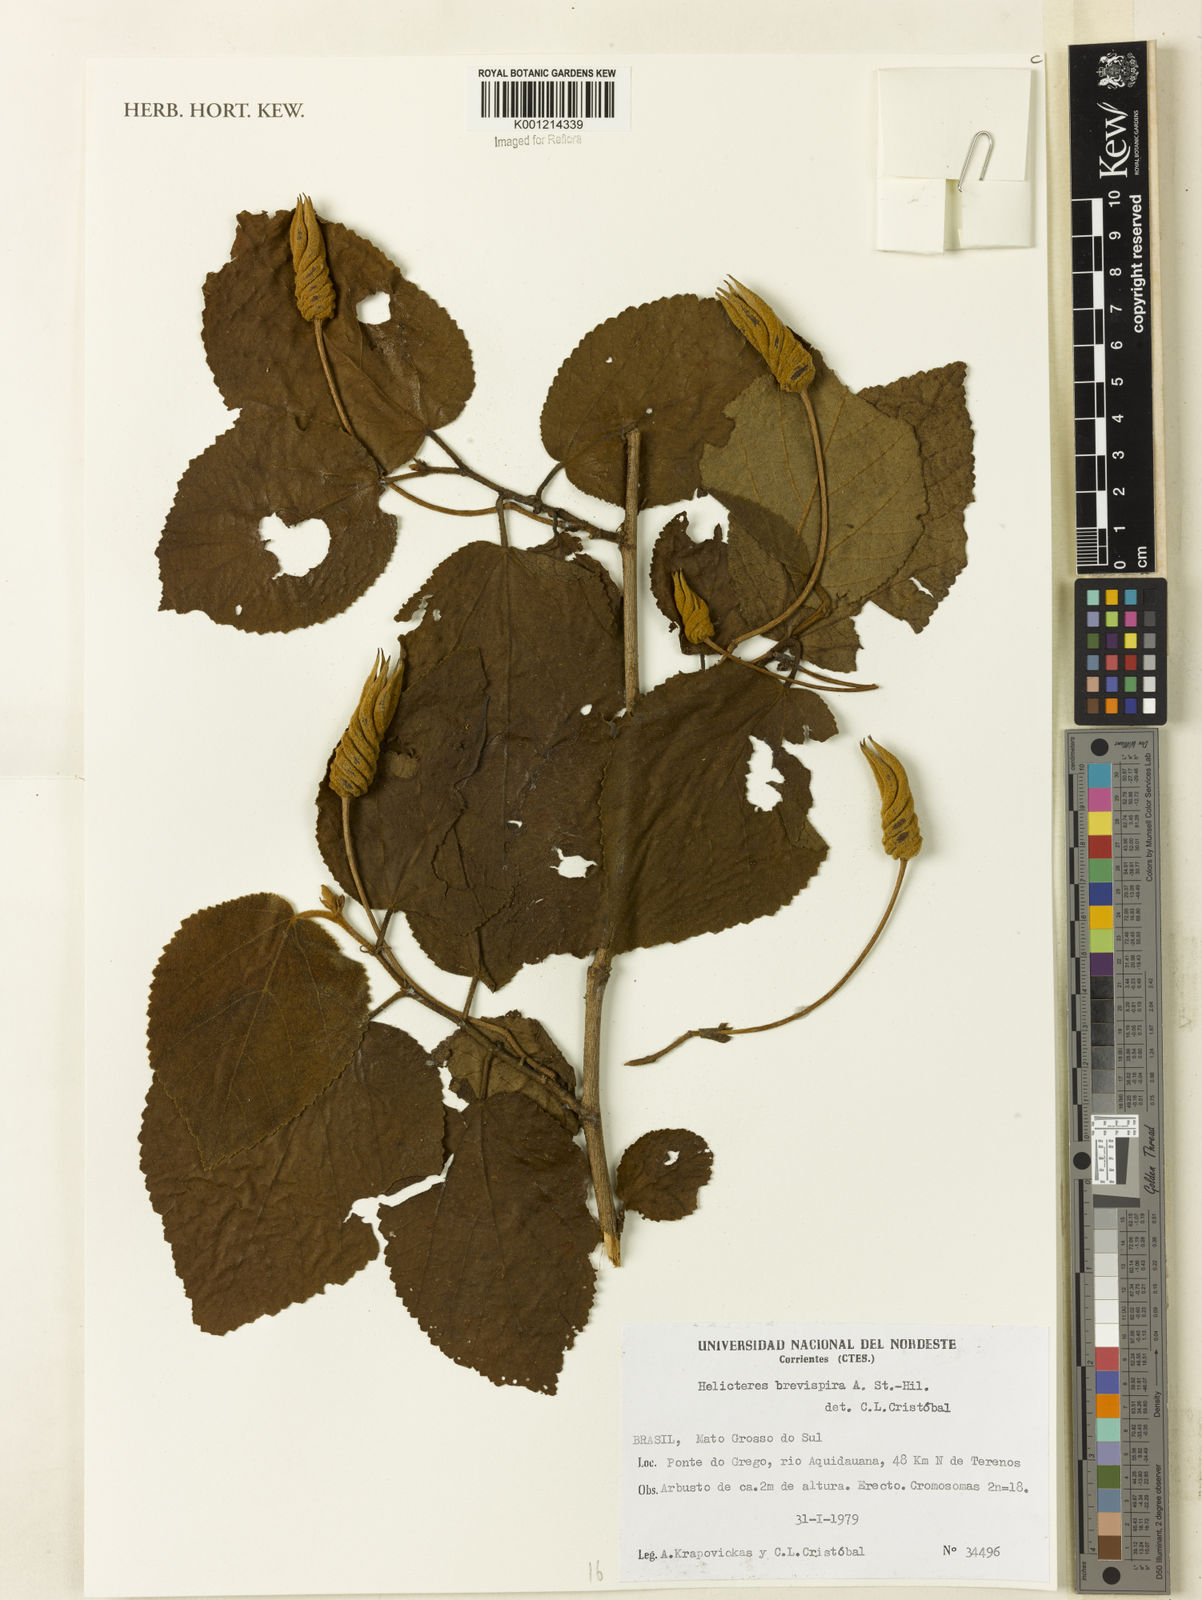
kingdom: Plantae
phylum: Tracheophyta
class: Magnoliopsida
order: Malvales
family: Malvaceae
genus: Helicteres
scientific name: Helicteres
